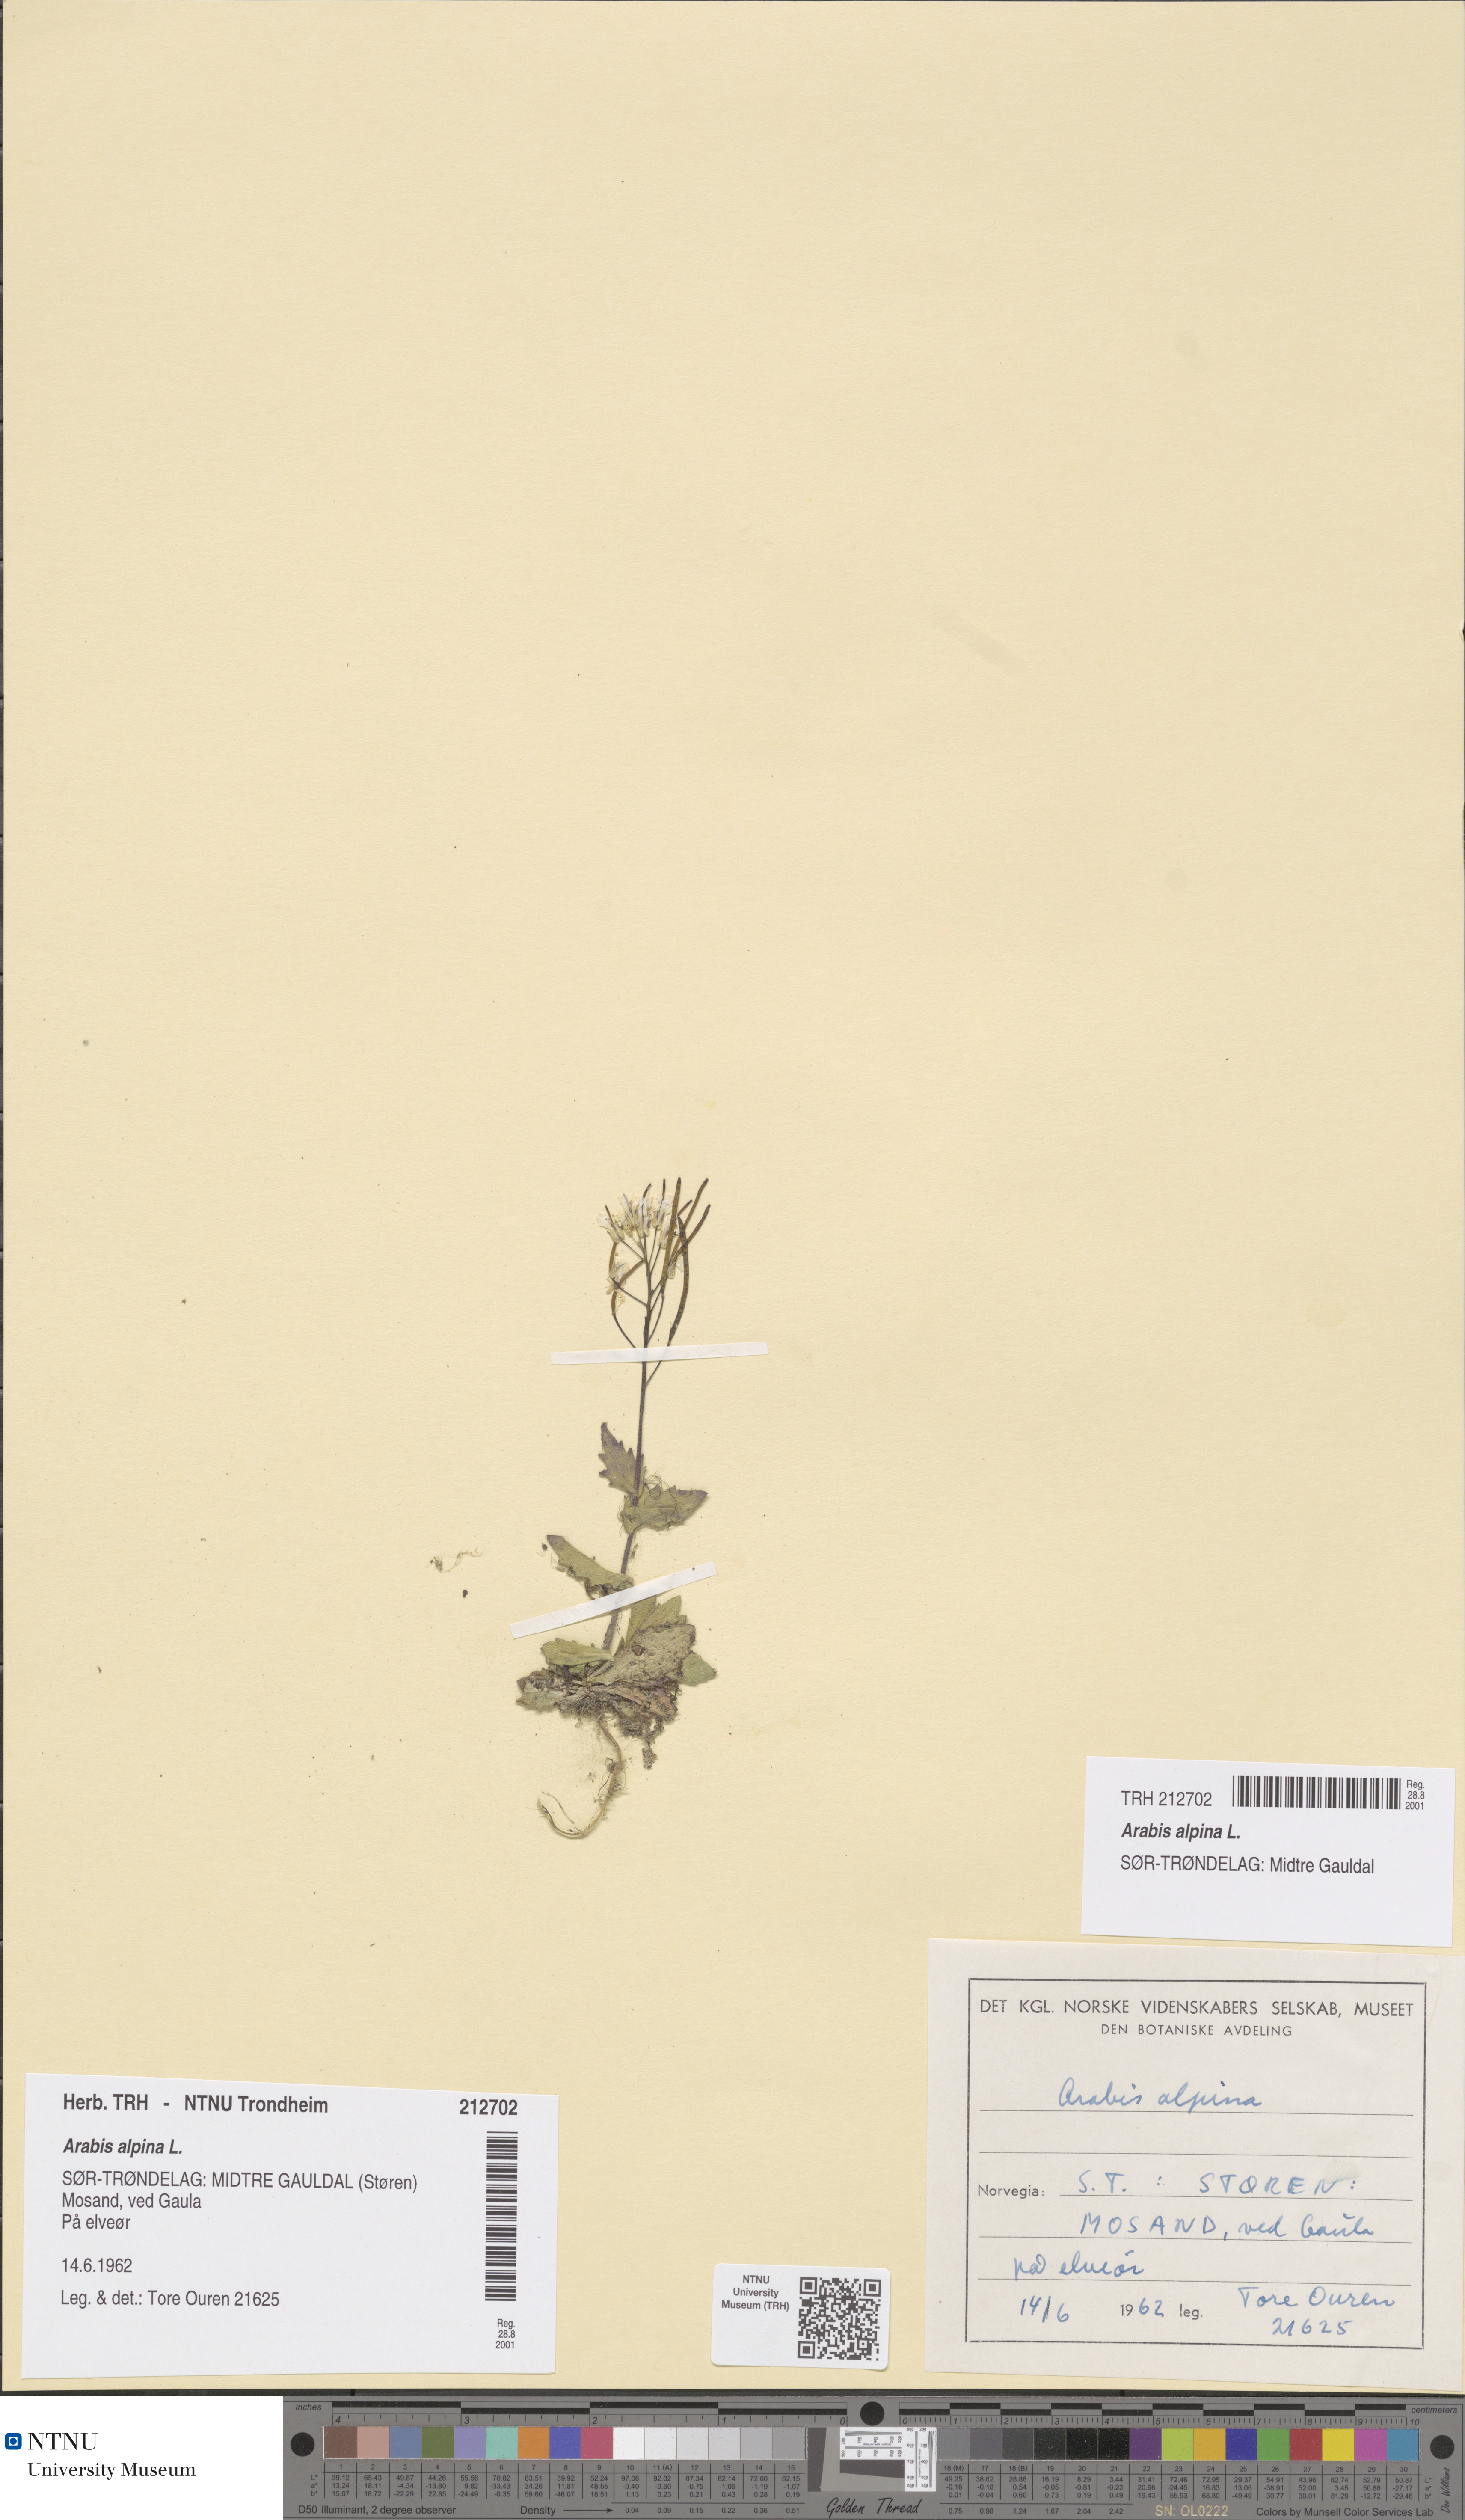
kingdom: Plantae
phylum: Tracheophyta
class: Magnoliopsida
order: Brassicales
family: Brassicaceae
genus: Arabis
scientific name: Arabis alpina
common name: Alpine rock-cress
